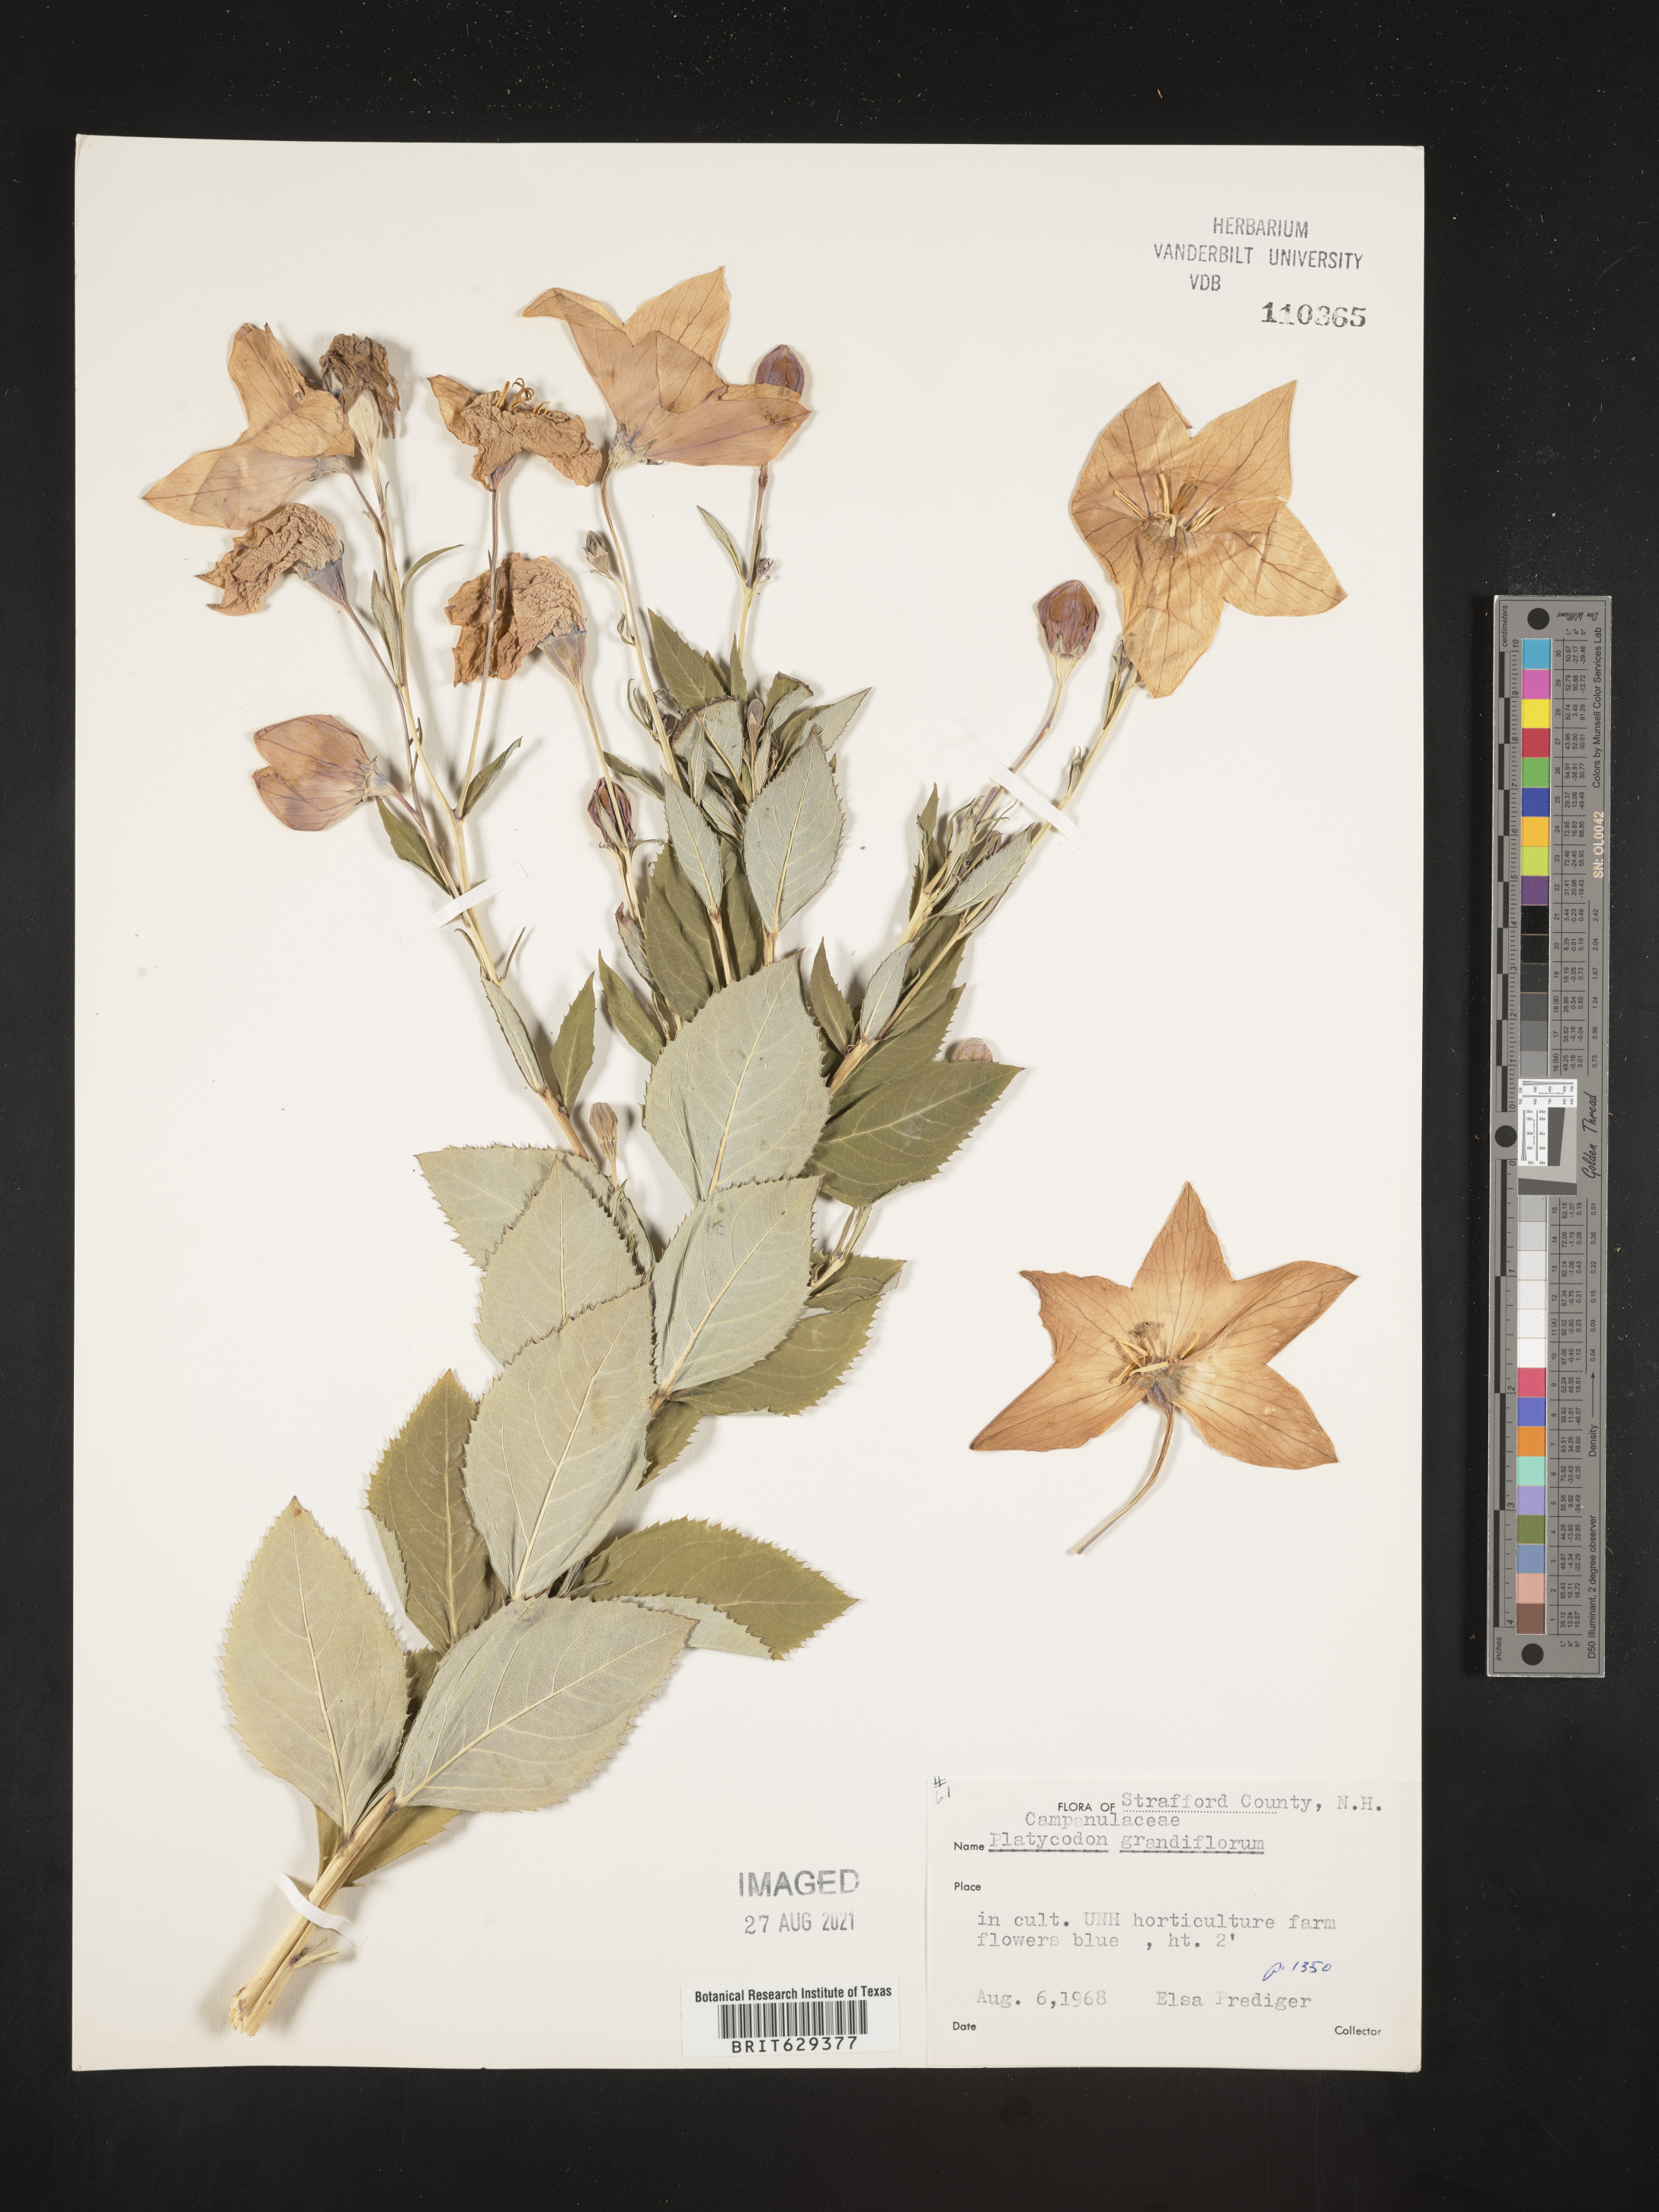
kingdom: Plantae
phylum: Tracheophyta
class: Magnoliopsida
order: Asterales
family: Campanulaceae
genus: Platycodon
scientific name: Platycodon grandiflorus
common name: Balloon-flower
